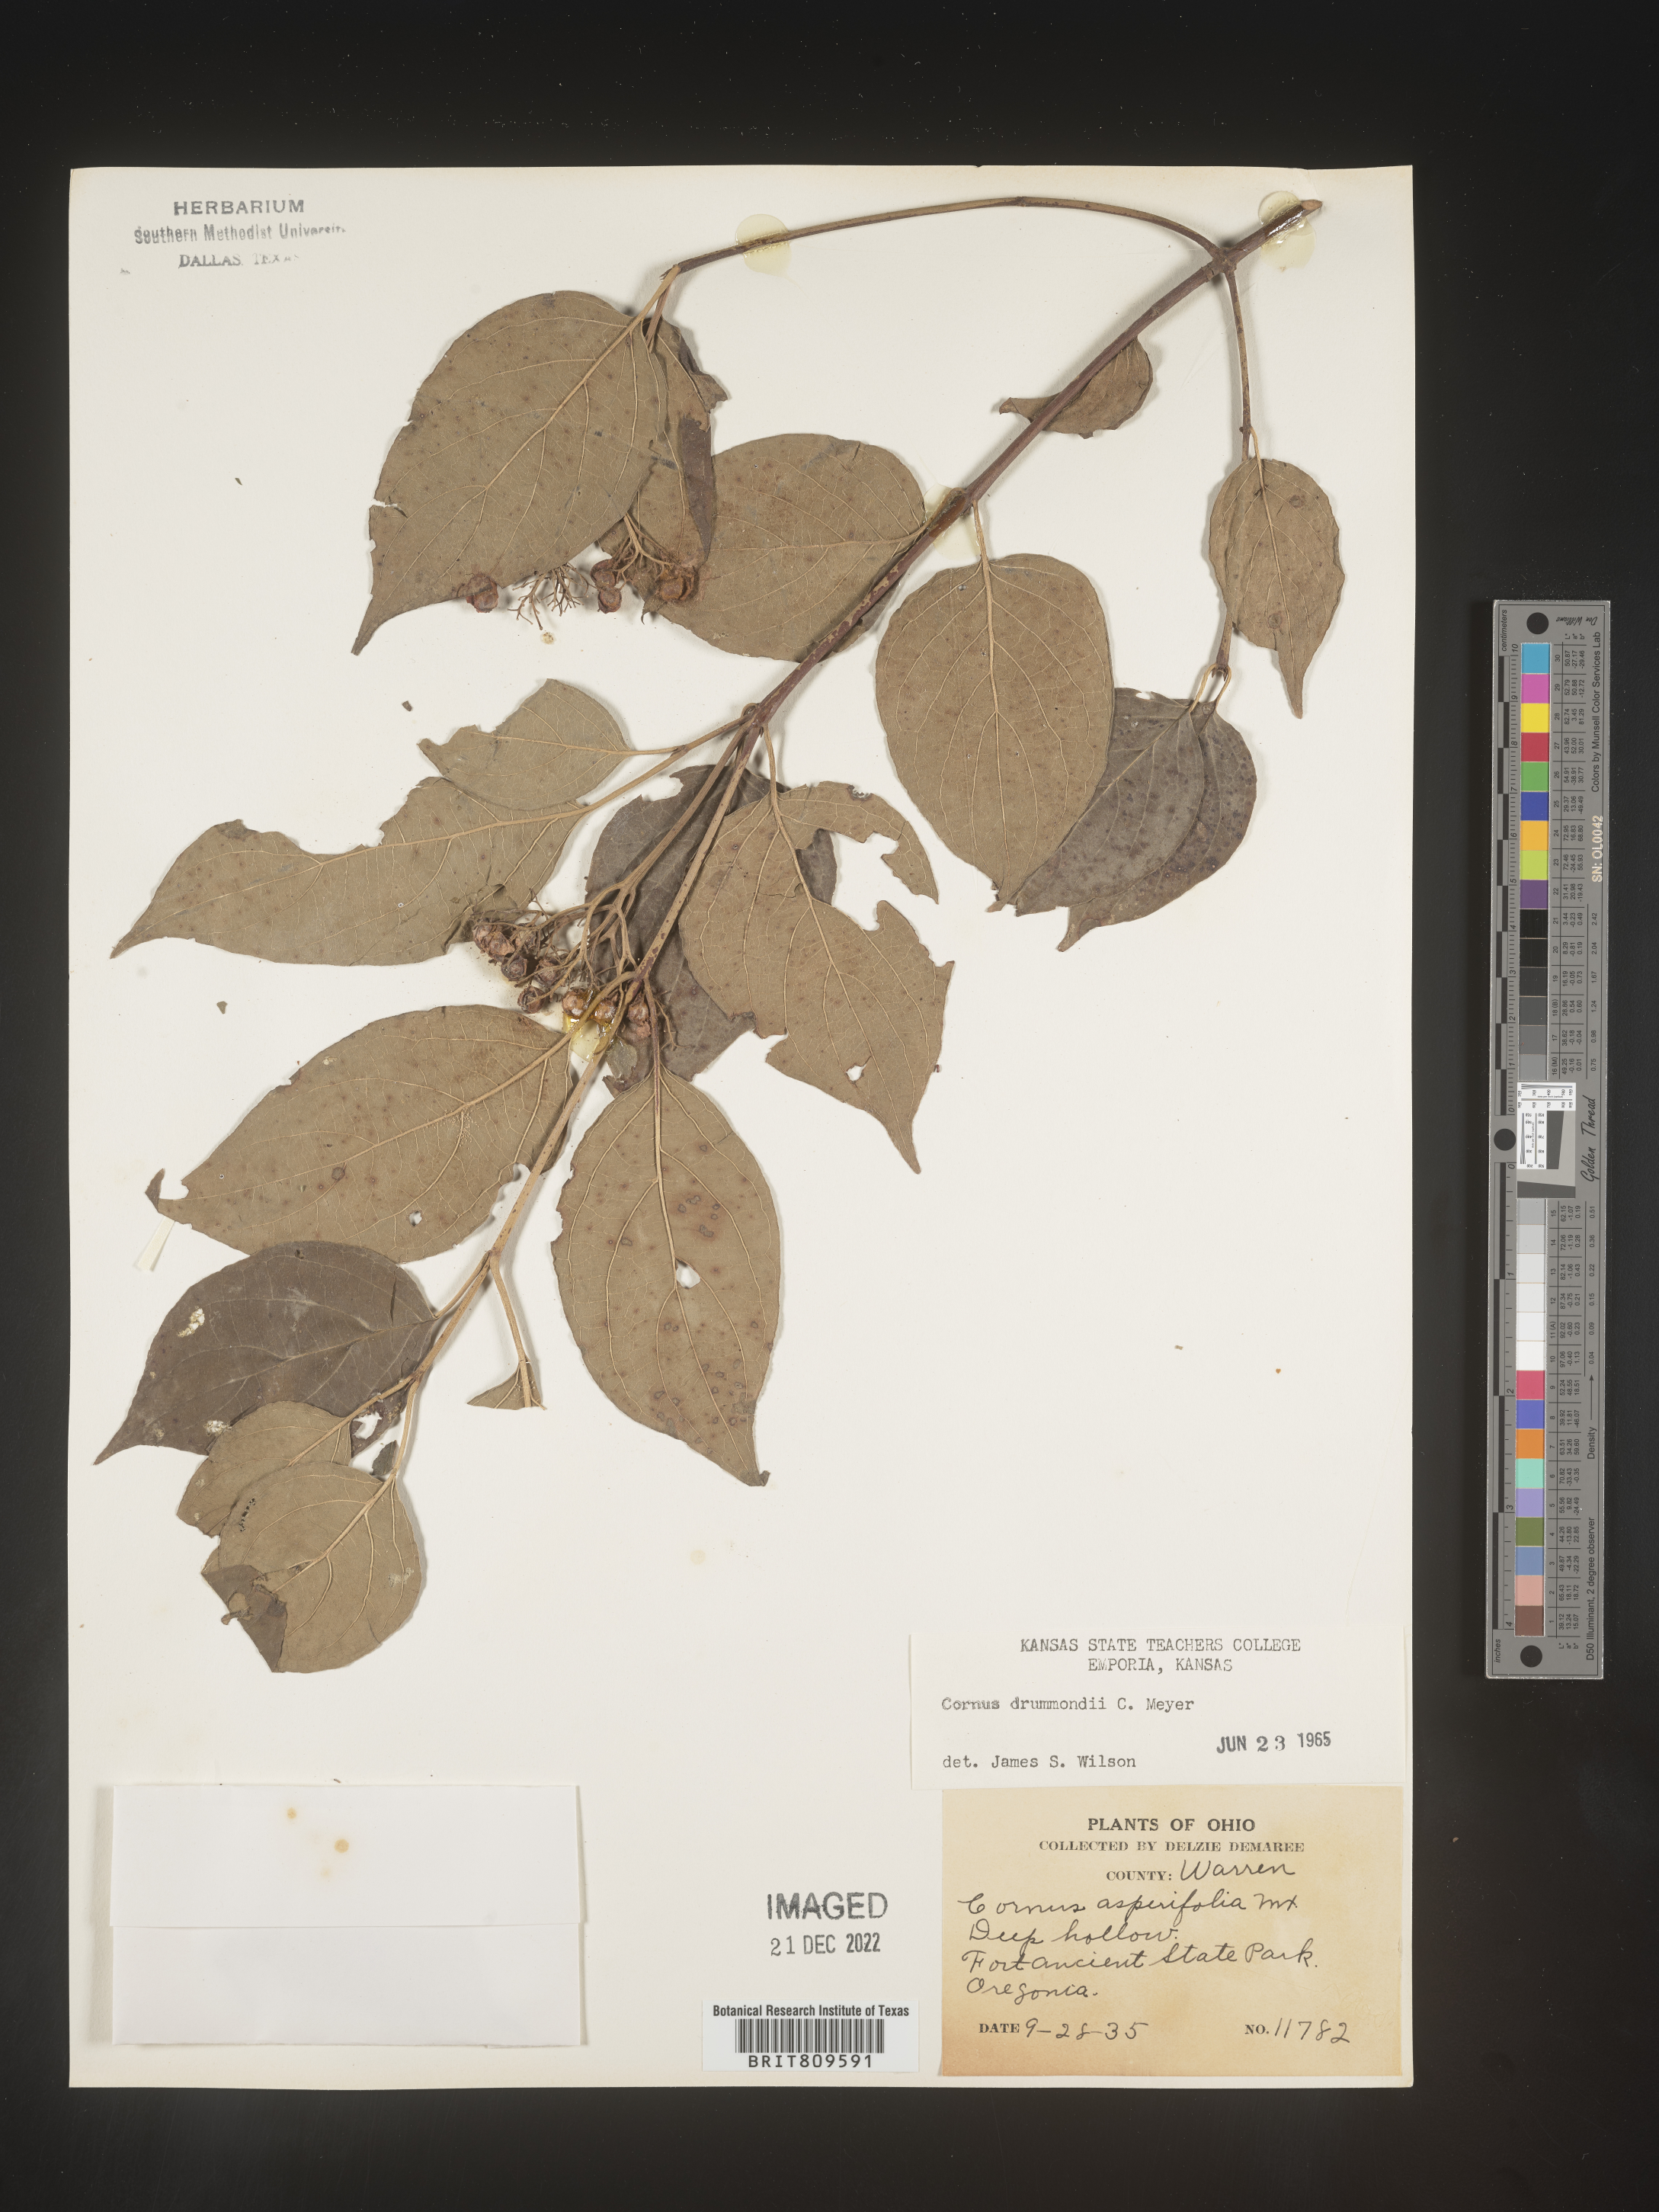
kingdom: Plantae
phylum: Tracheophyta
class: Magnoliopsida
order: Cornales
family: Cornaceae
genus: Cornus
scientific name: Cornus drummondii
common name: Rough-leaf dogwood
